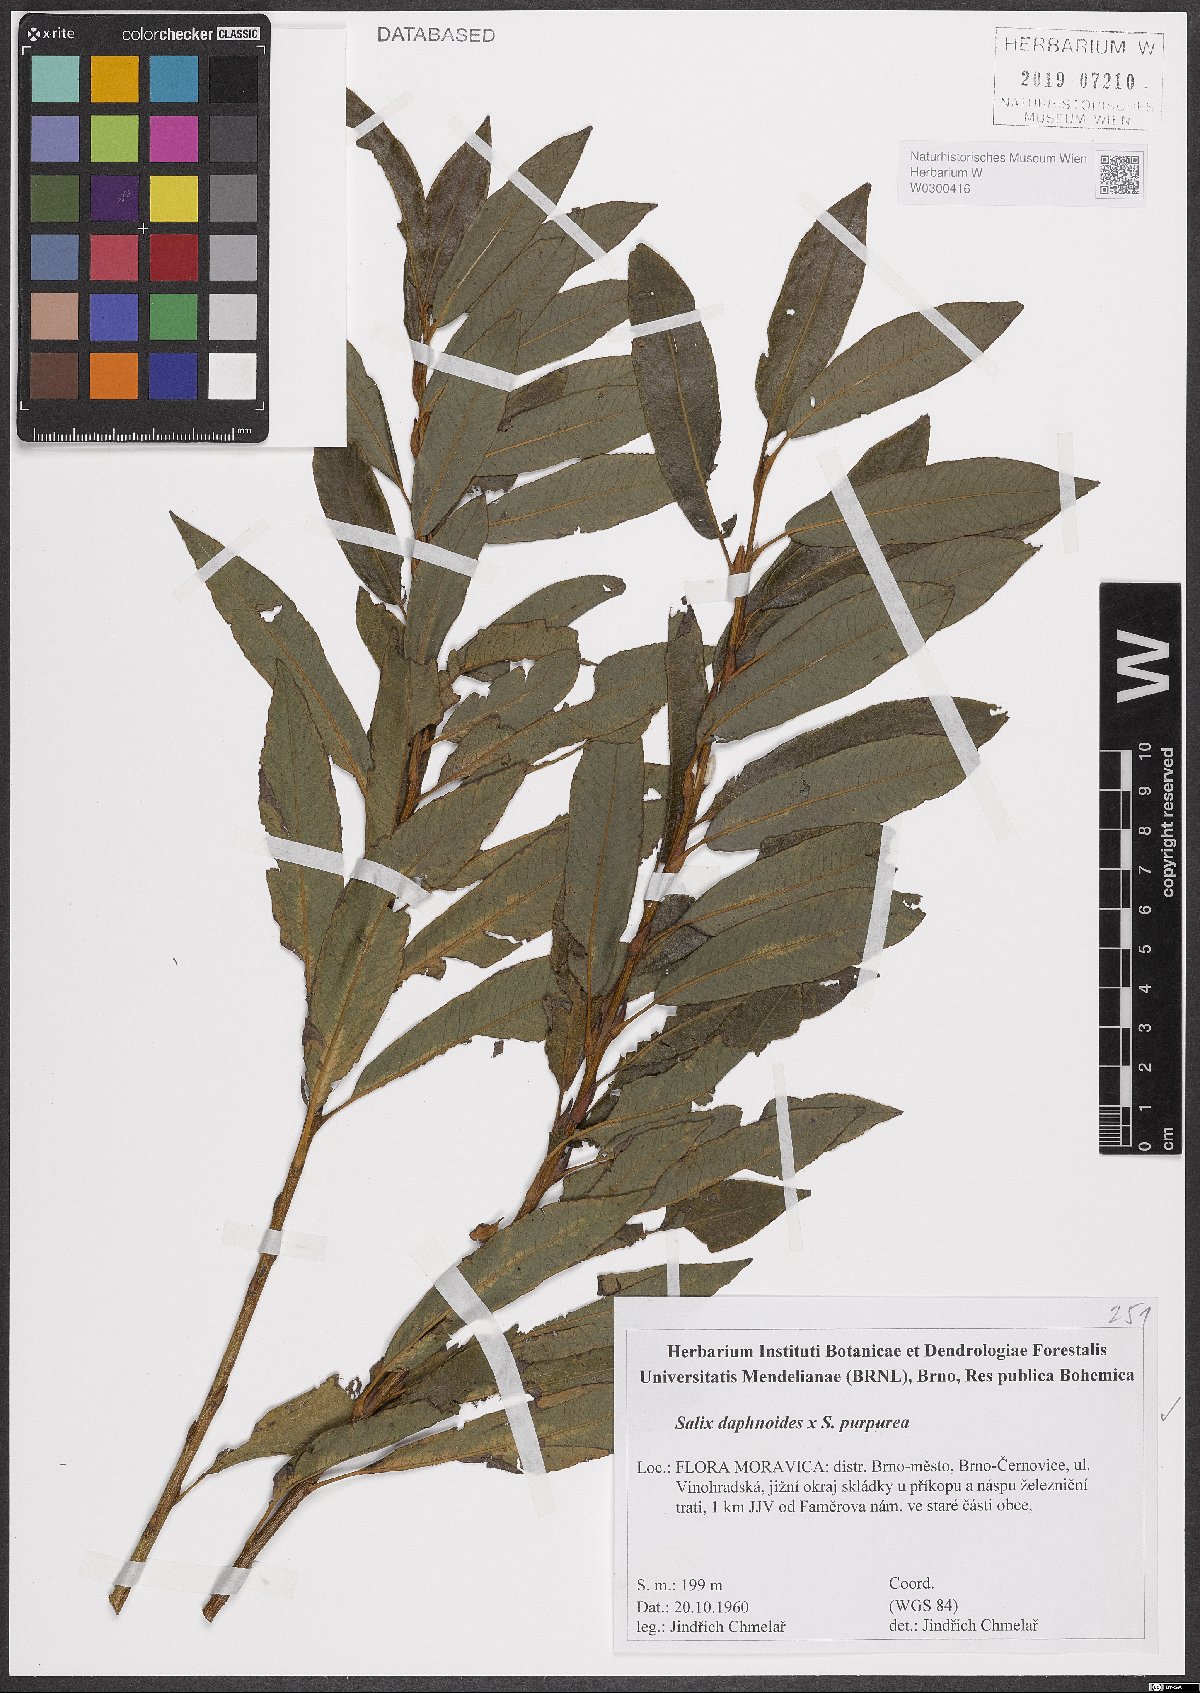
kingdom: Plantae
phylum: Tracheophyta
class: Magnoliopsida
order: Malpighiales
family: Salicaceae
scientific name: Salicaceae
